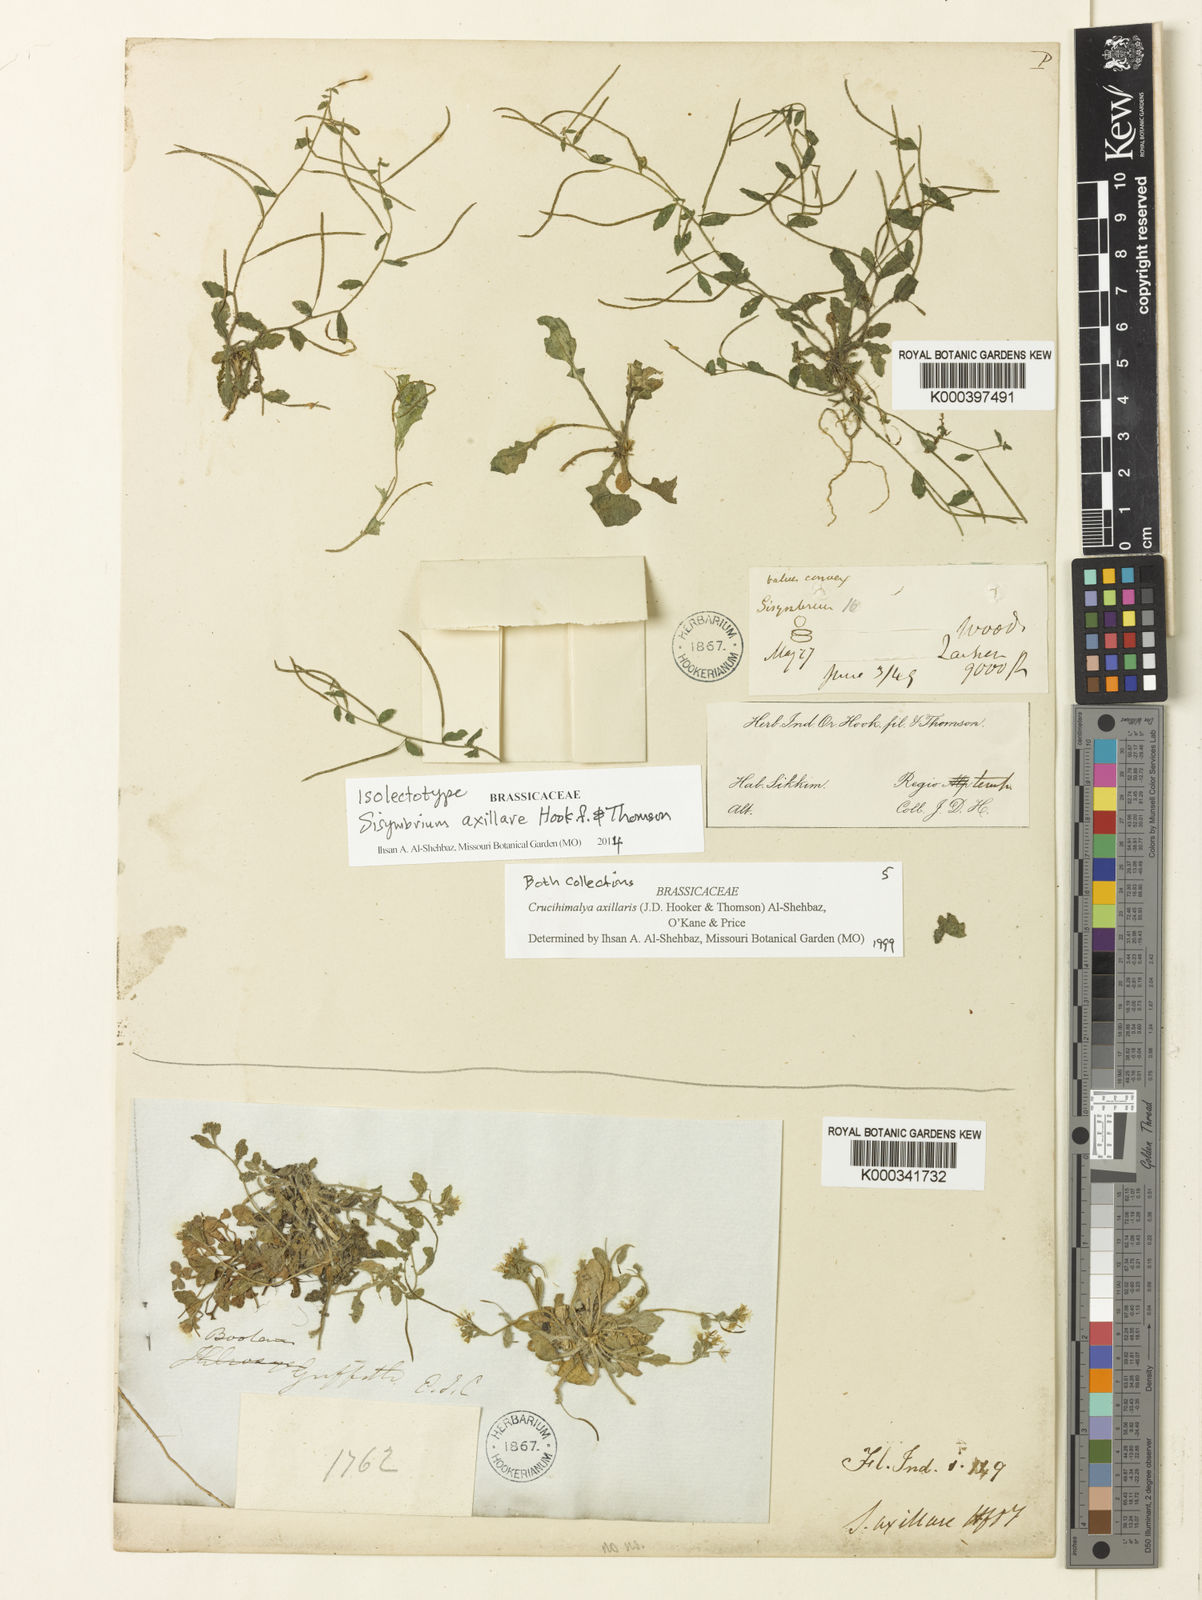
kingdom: Plantae
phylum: Tracheophyta
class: Magnoliopsida
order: Brassicales
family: Brassicaceae
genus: Crucihimalaya
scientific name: Crucihimalaya axillaris
